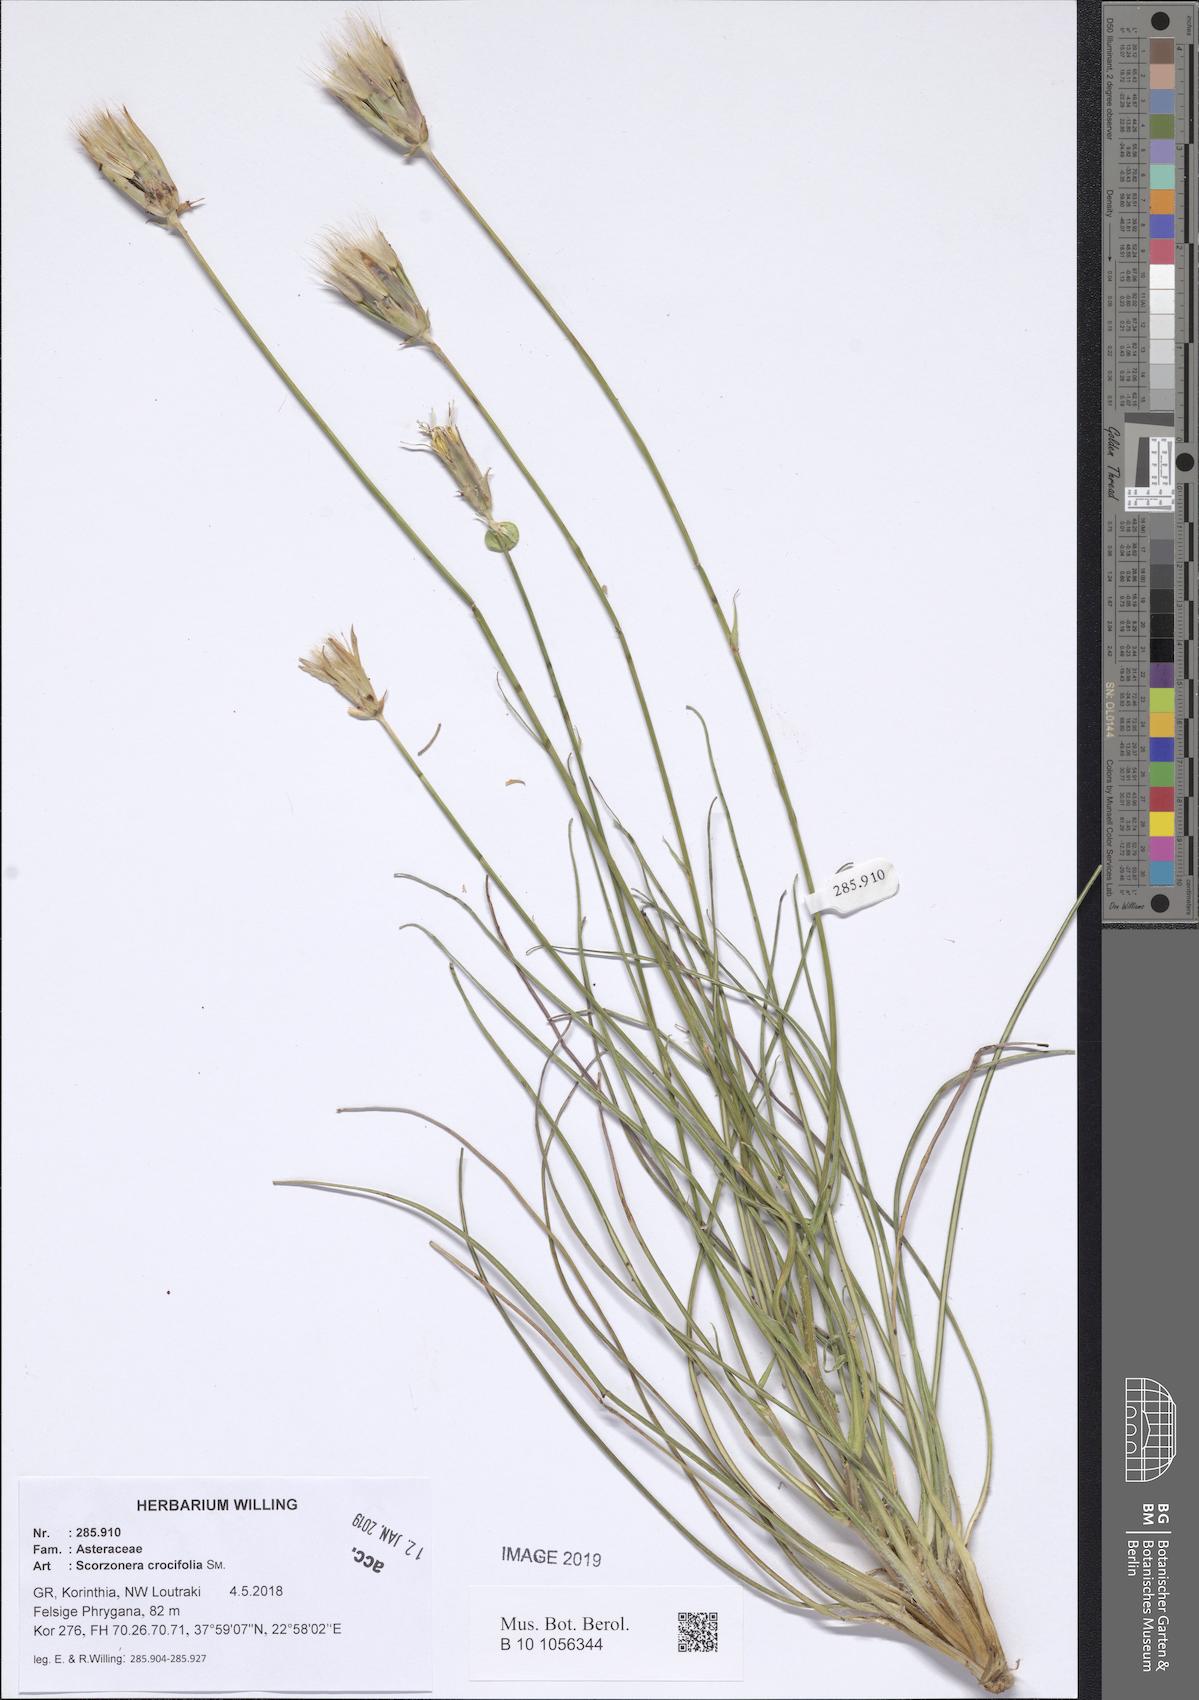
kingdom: Plantae
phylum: Tracheophyta
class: Magnoliopsida
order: Asterales
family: Asteraceae
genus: Pseudopodospermum
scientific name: Pseudopodospermum crocifolium
